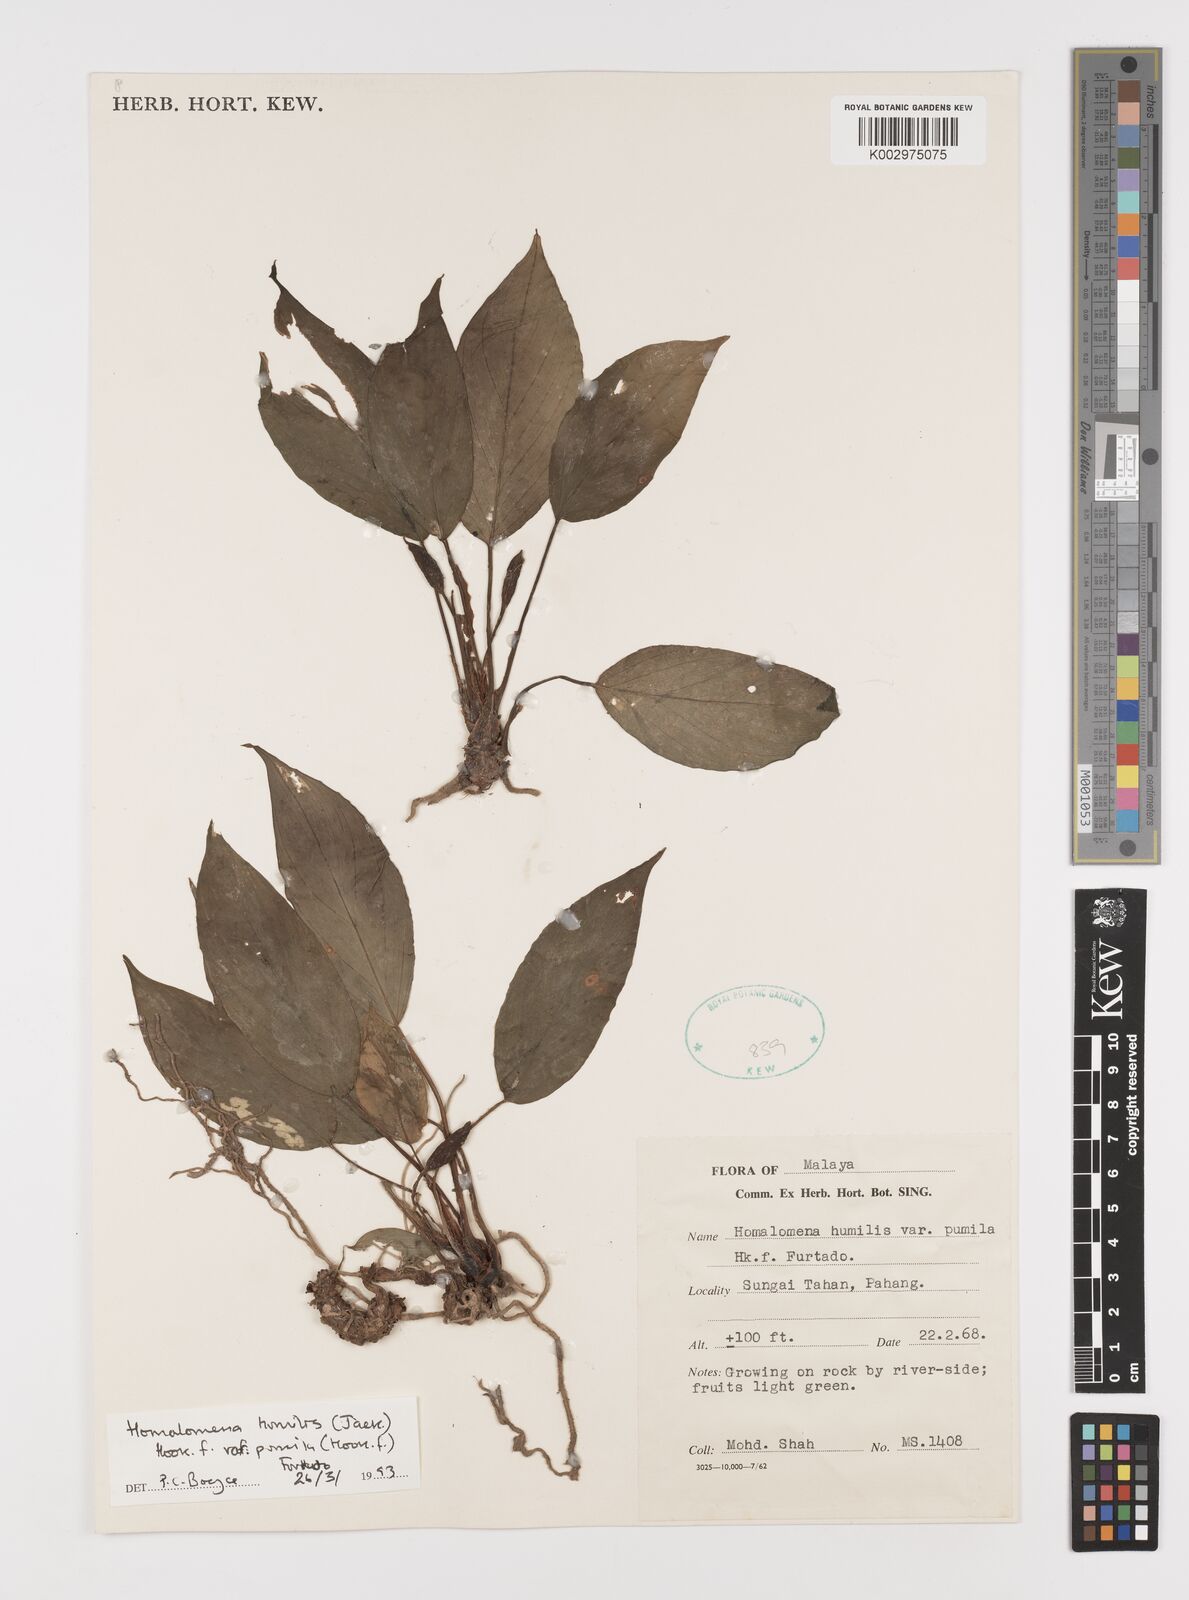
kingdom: Plantae
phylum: Tracheophyta
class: Liliopsida
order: Alismatales
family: Araceae
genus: Homalomena
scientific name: Homalomena humilis
